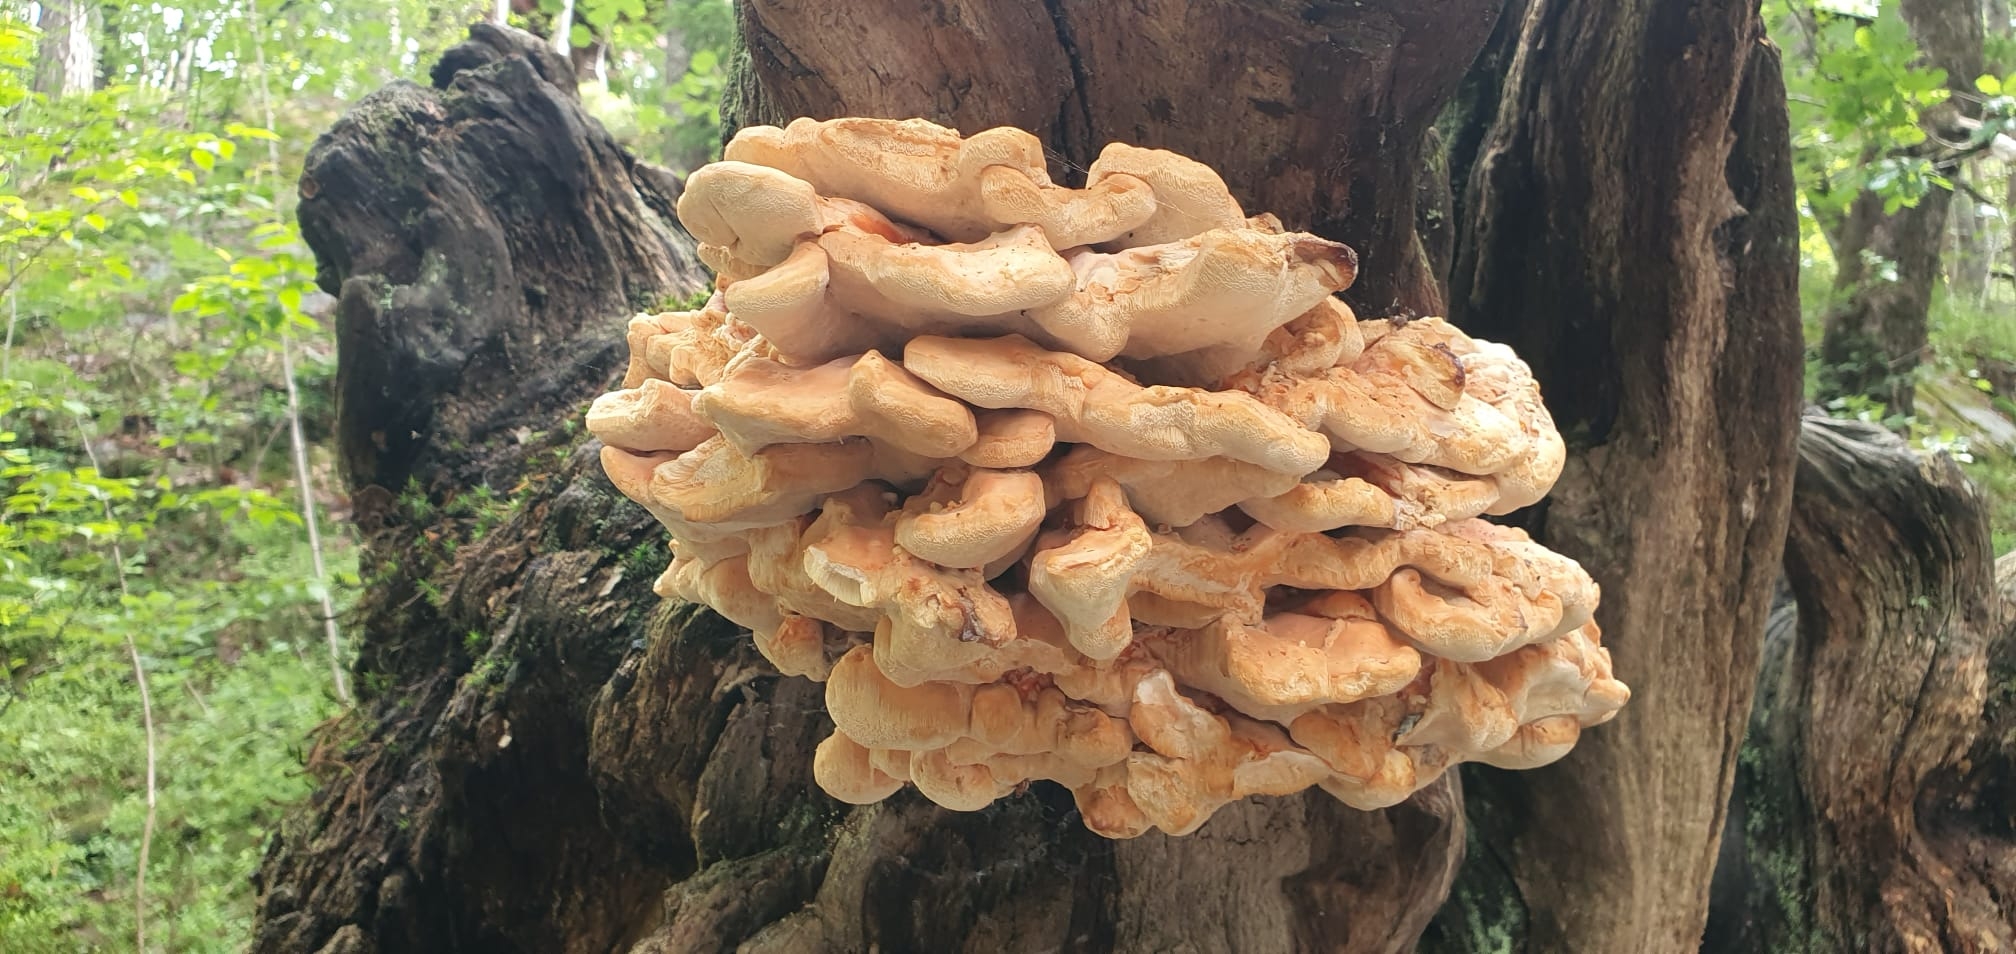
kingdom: Fungi
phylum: Basidiomycota
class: Agaricomycetes
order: Polyporales
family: Laetiporaceae
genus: Laetiporus
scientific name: Laetiporus sulphureus
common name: svovlporesvamp
